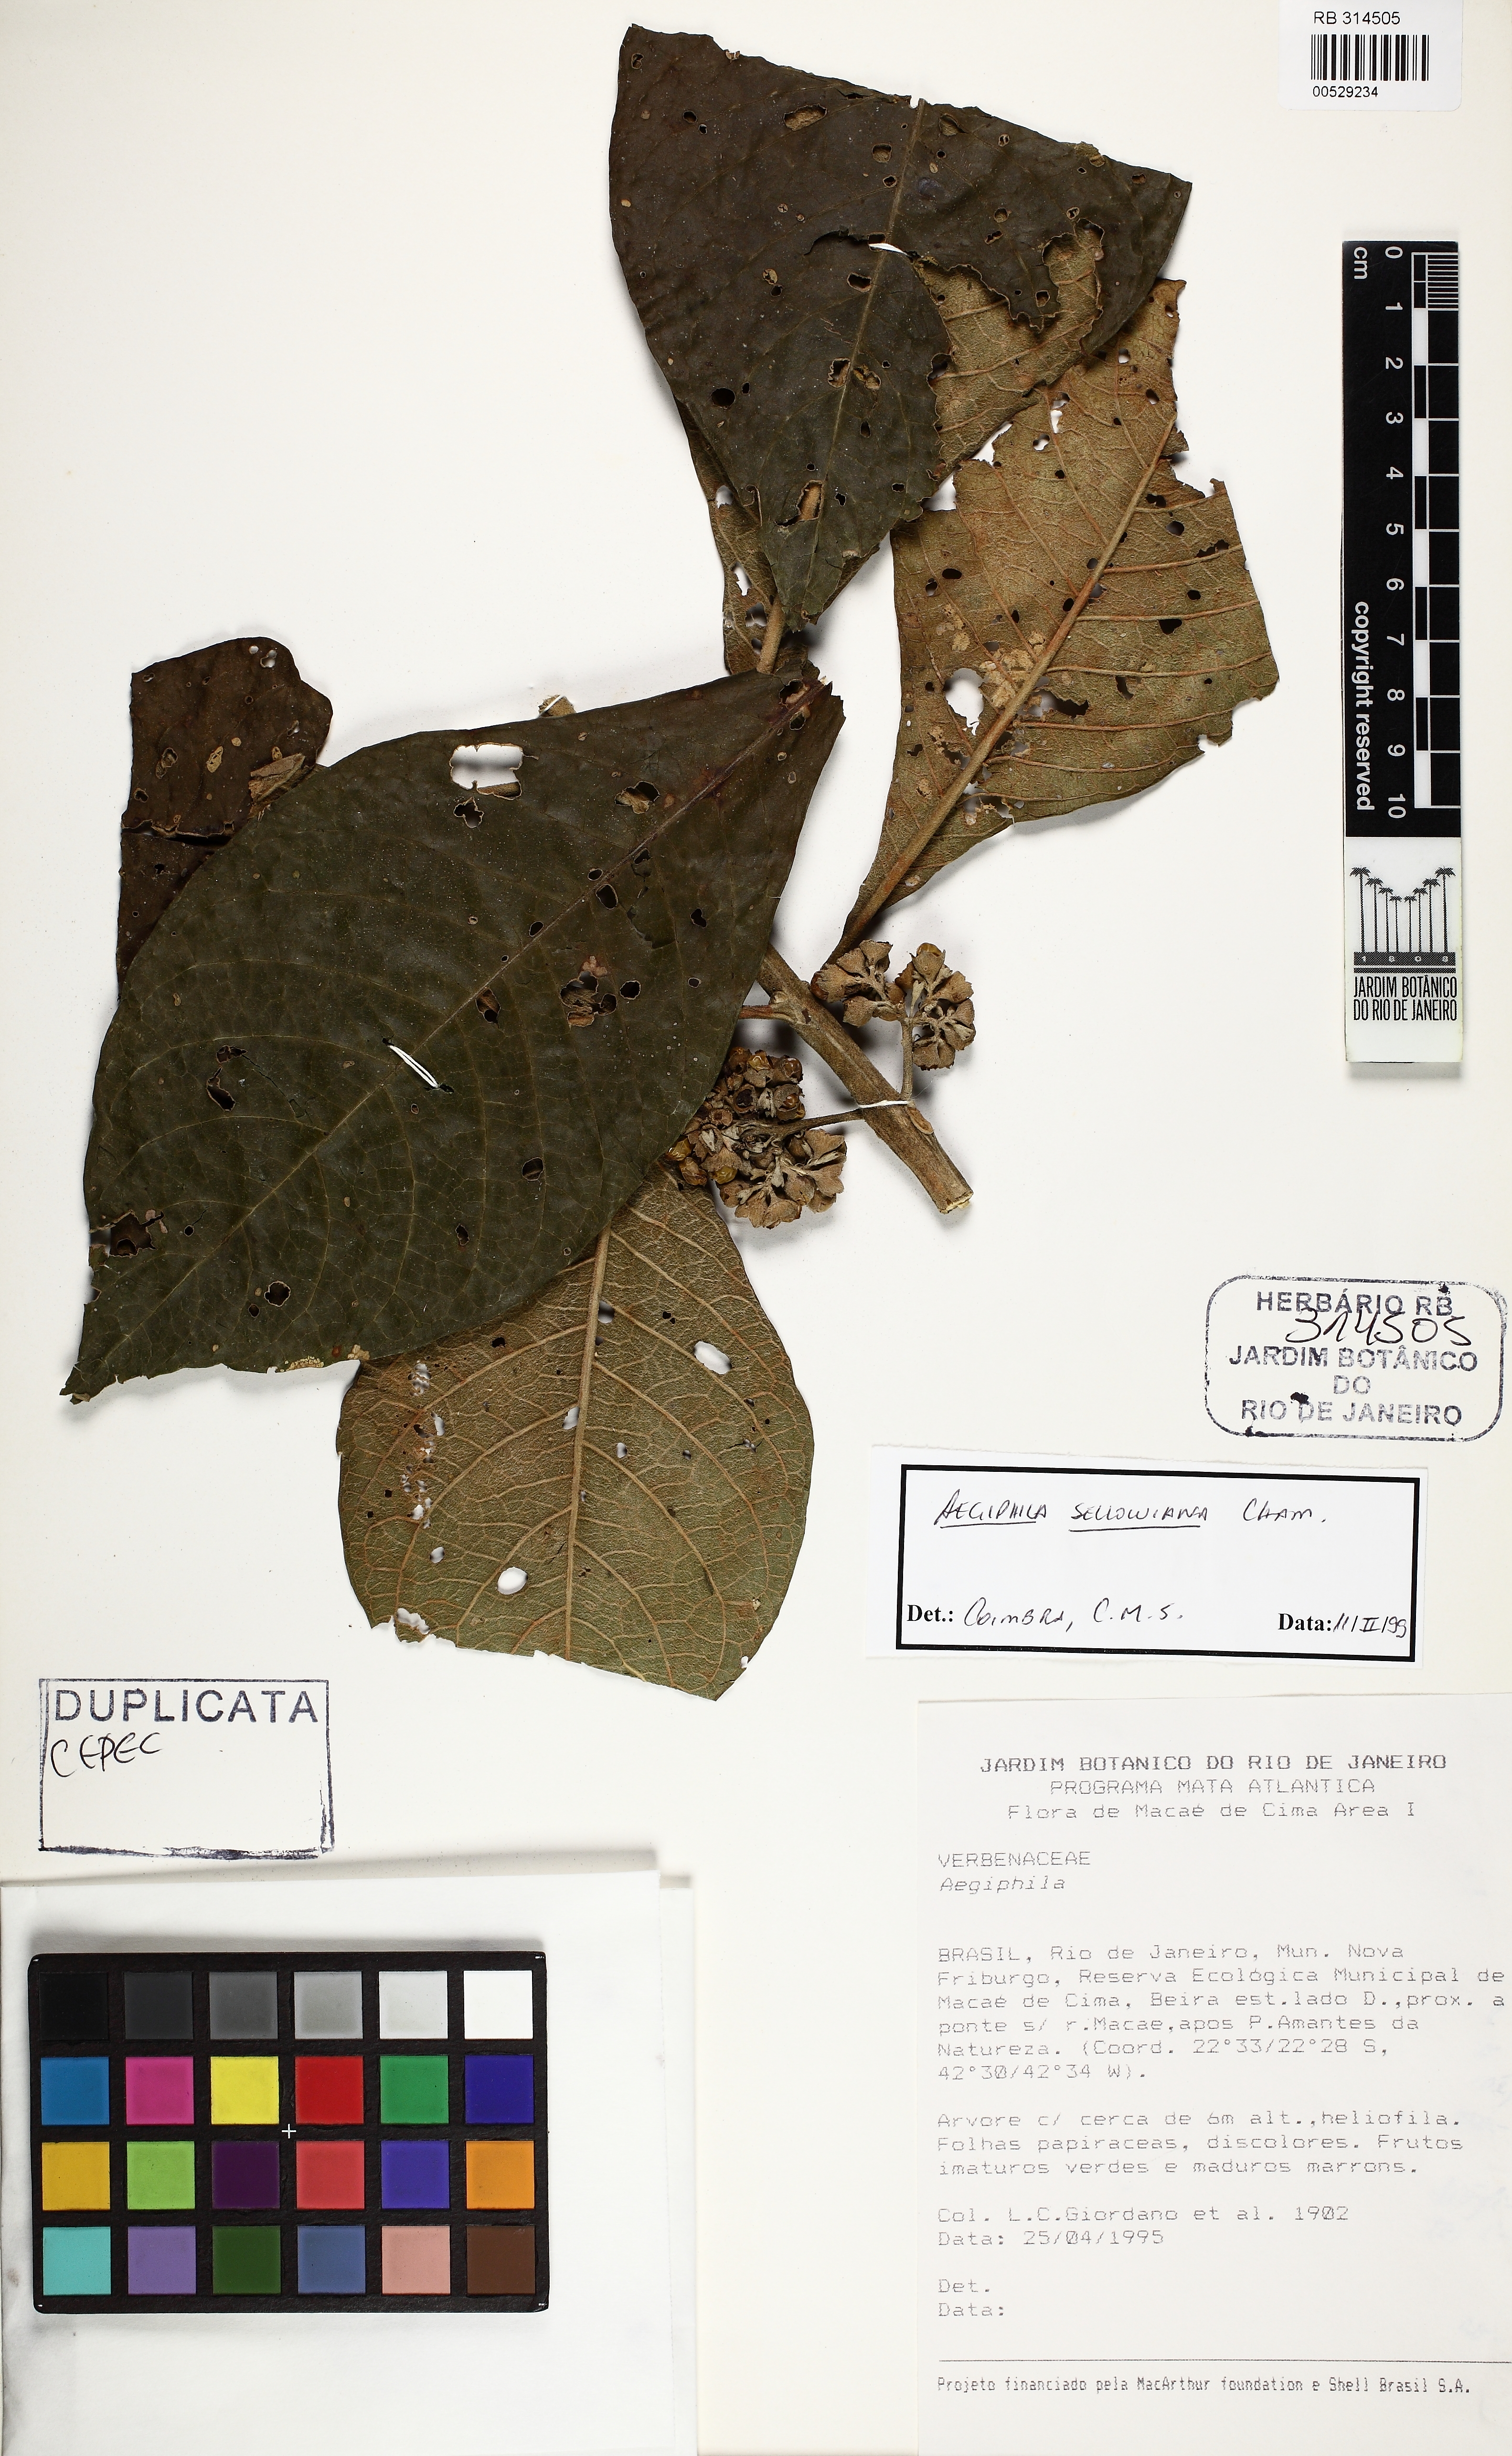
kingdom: Plantae
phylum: Tracheophyta
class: Magnoliopsida
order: Lamiales
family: Lamiaceae
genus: Aegiphila
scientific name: Aegiphila verticillata
